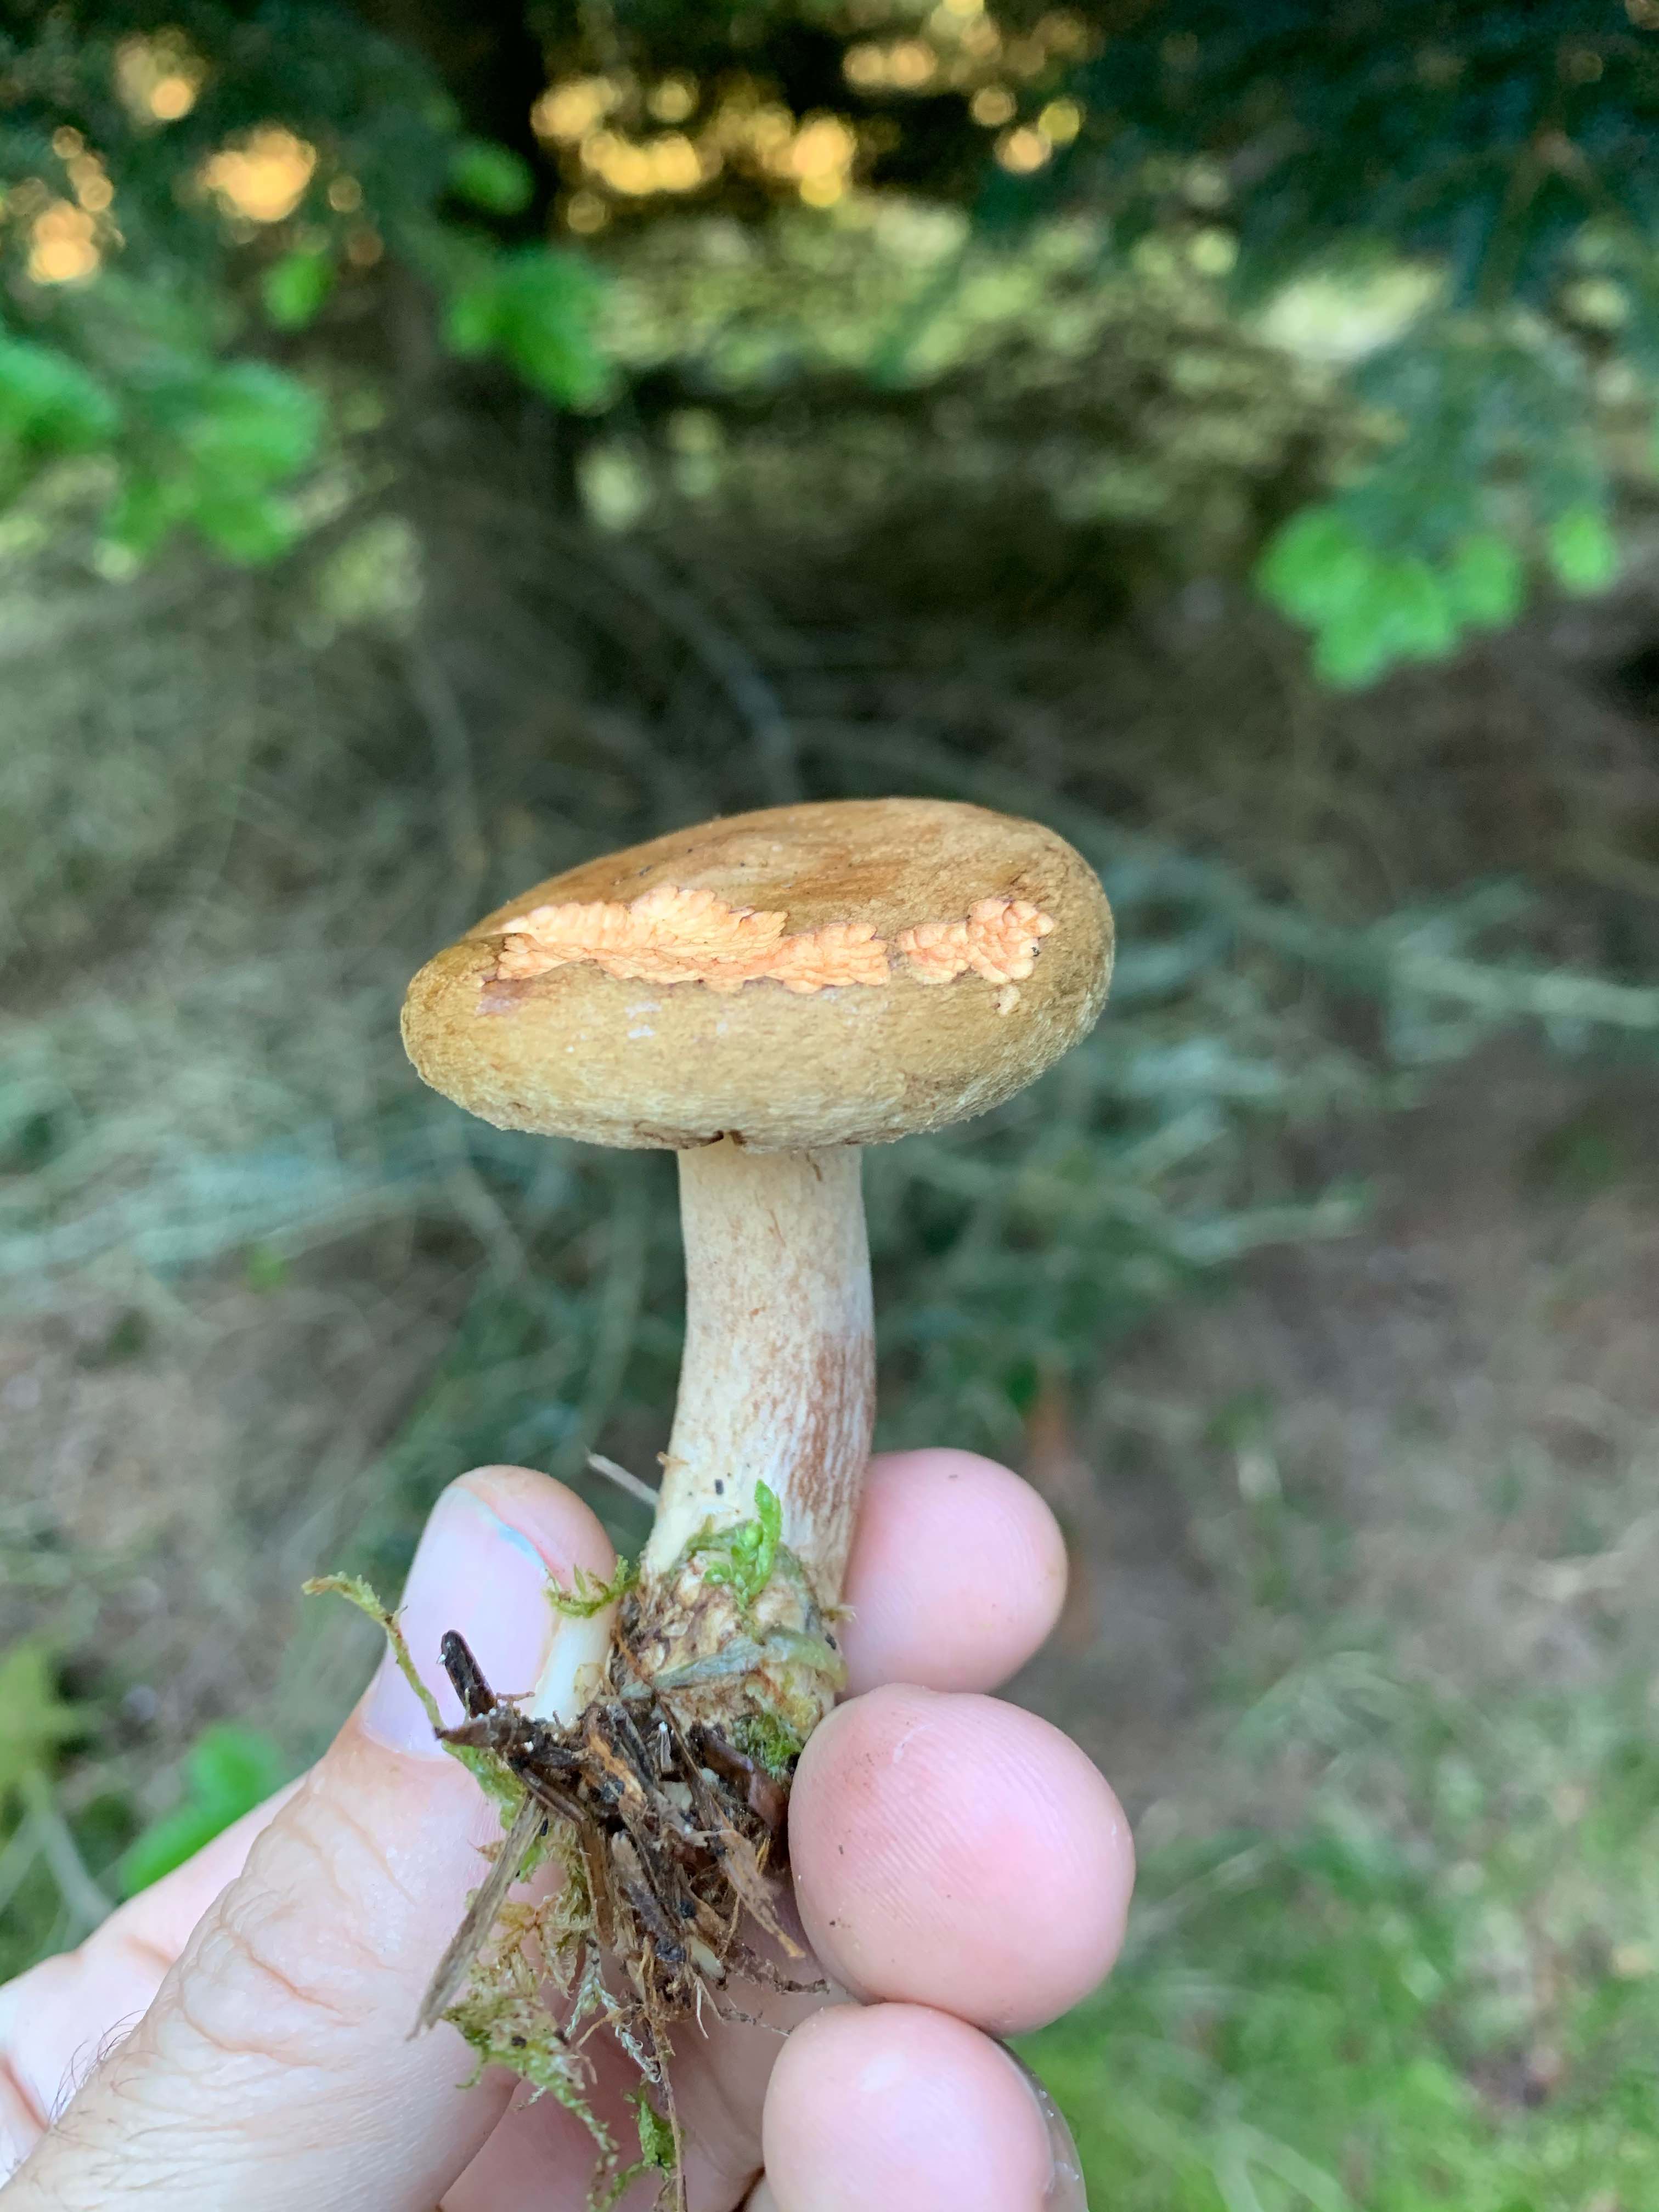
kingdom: Fungi
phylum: Basidiomycota
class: Agaricomycetes
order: Boletales
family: Paxillaceae
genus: Paxillus
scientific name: Paxillus involutus
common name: almindelig netbladhat
